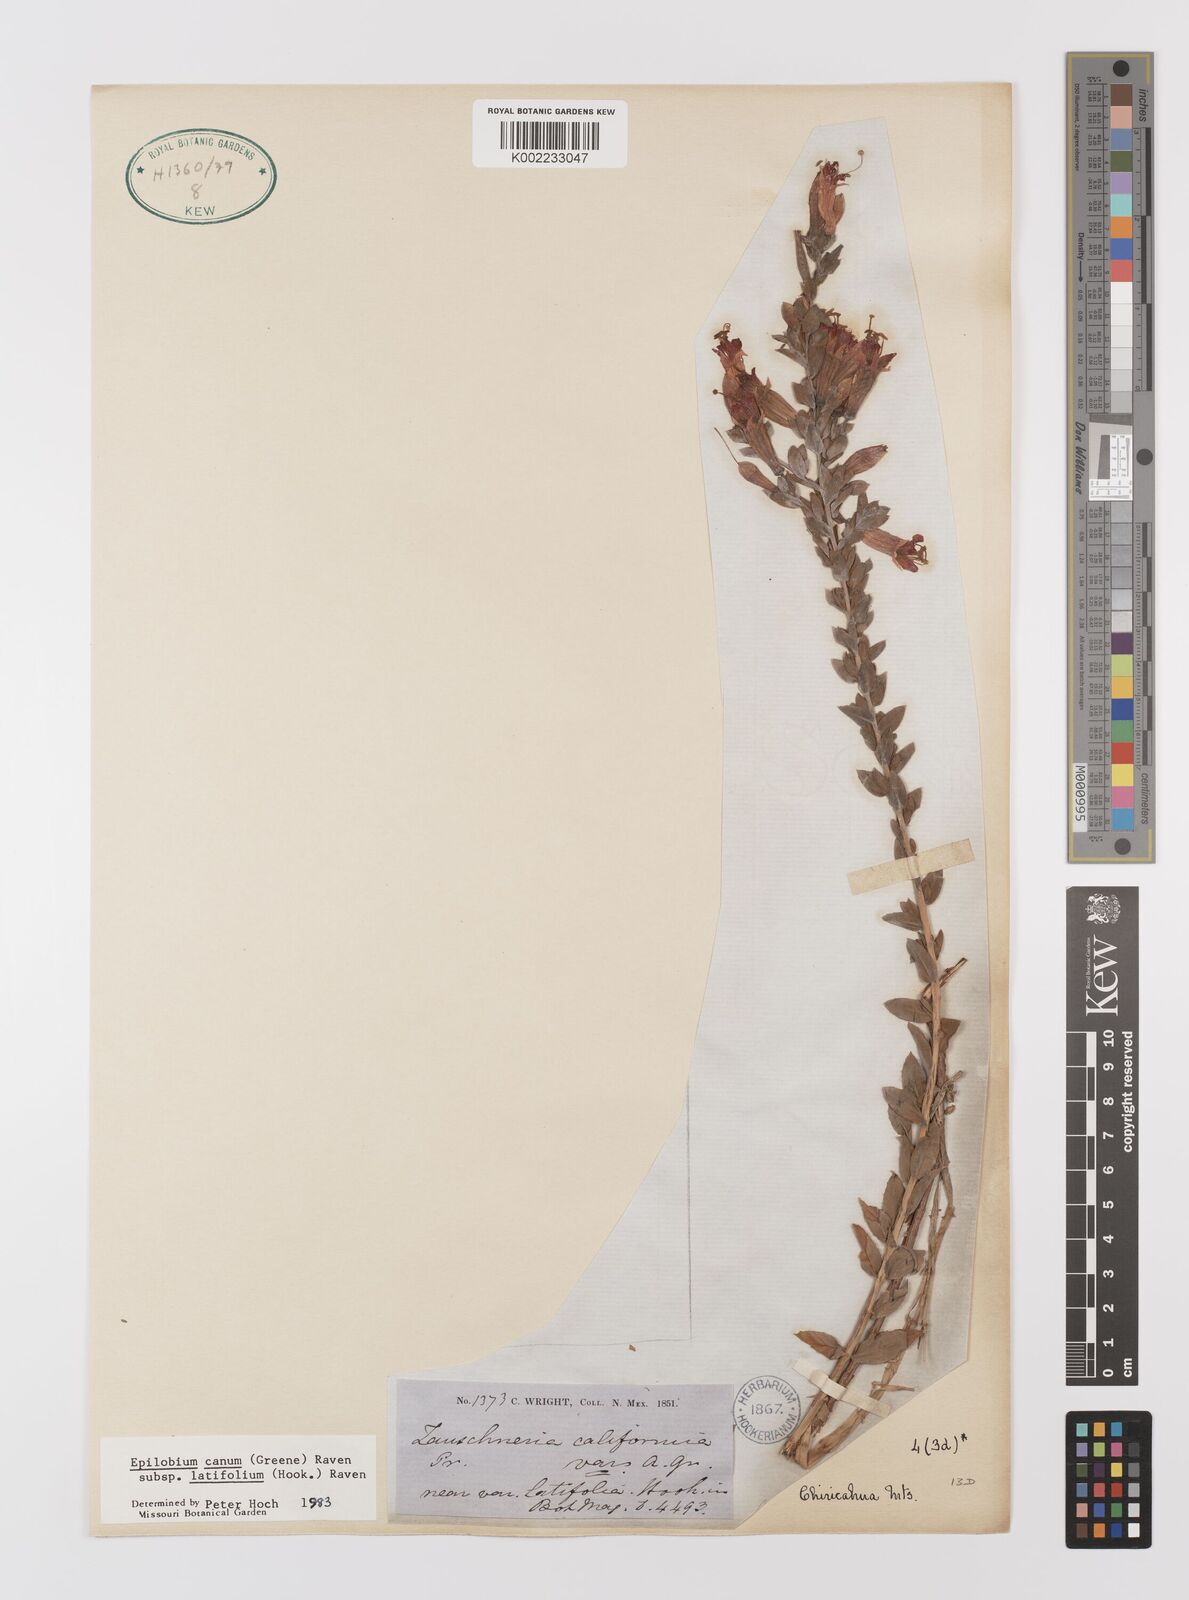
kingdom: Plantae
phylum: Tracheophyta
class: Magnoliopsida
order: Myrtales
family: Onagraceae
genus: Epilobium
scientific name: Epilobium
